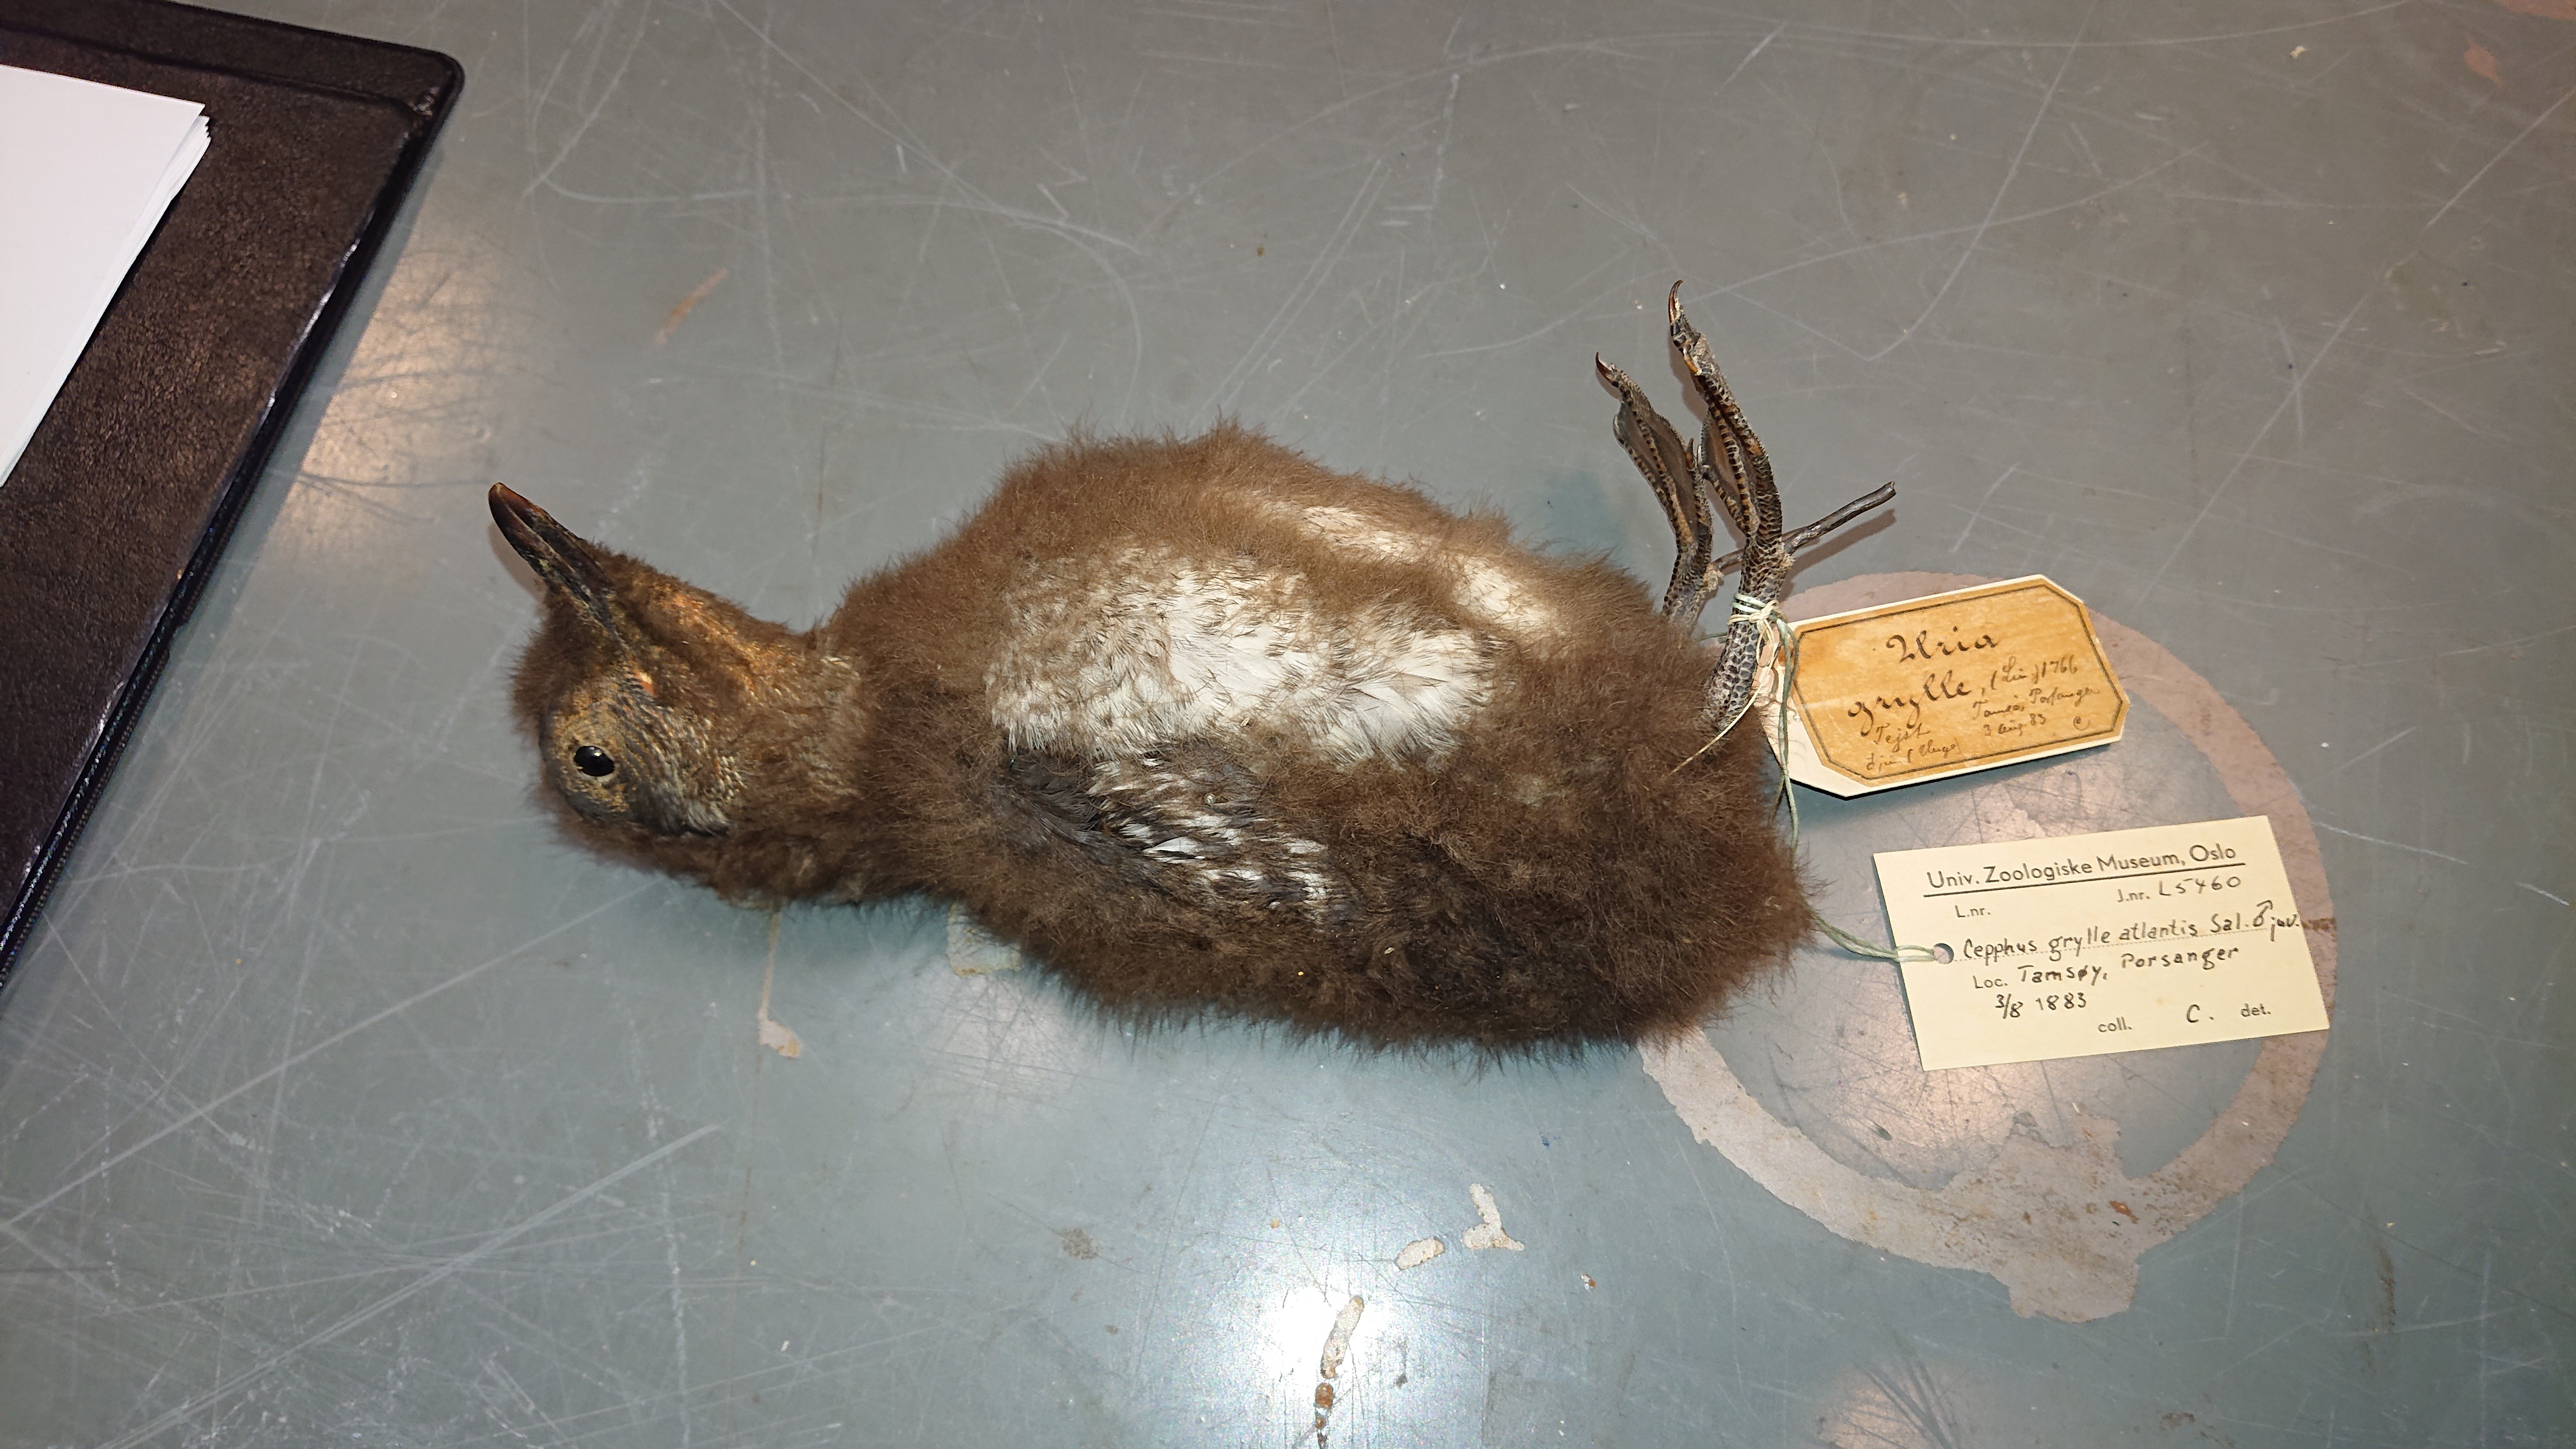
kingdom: Animalia
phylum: Chordata
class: Aves
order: Charadriiformes
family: Alcidae
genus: Cepphus
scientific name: Cepphus grylle
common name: Black guillemot
